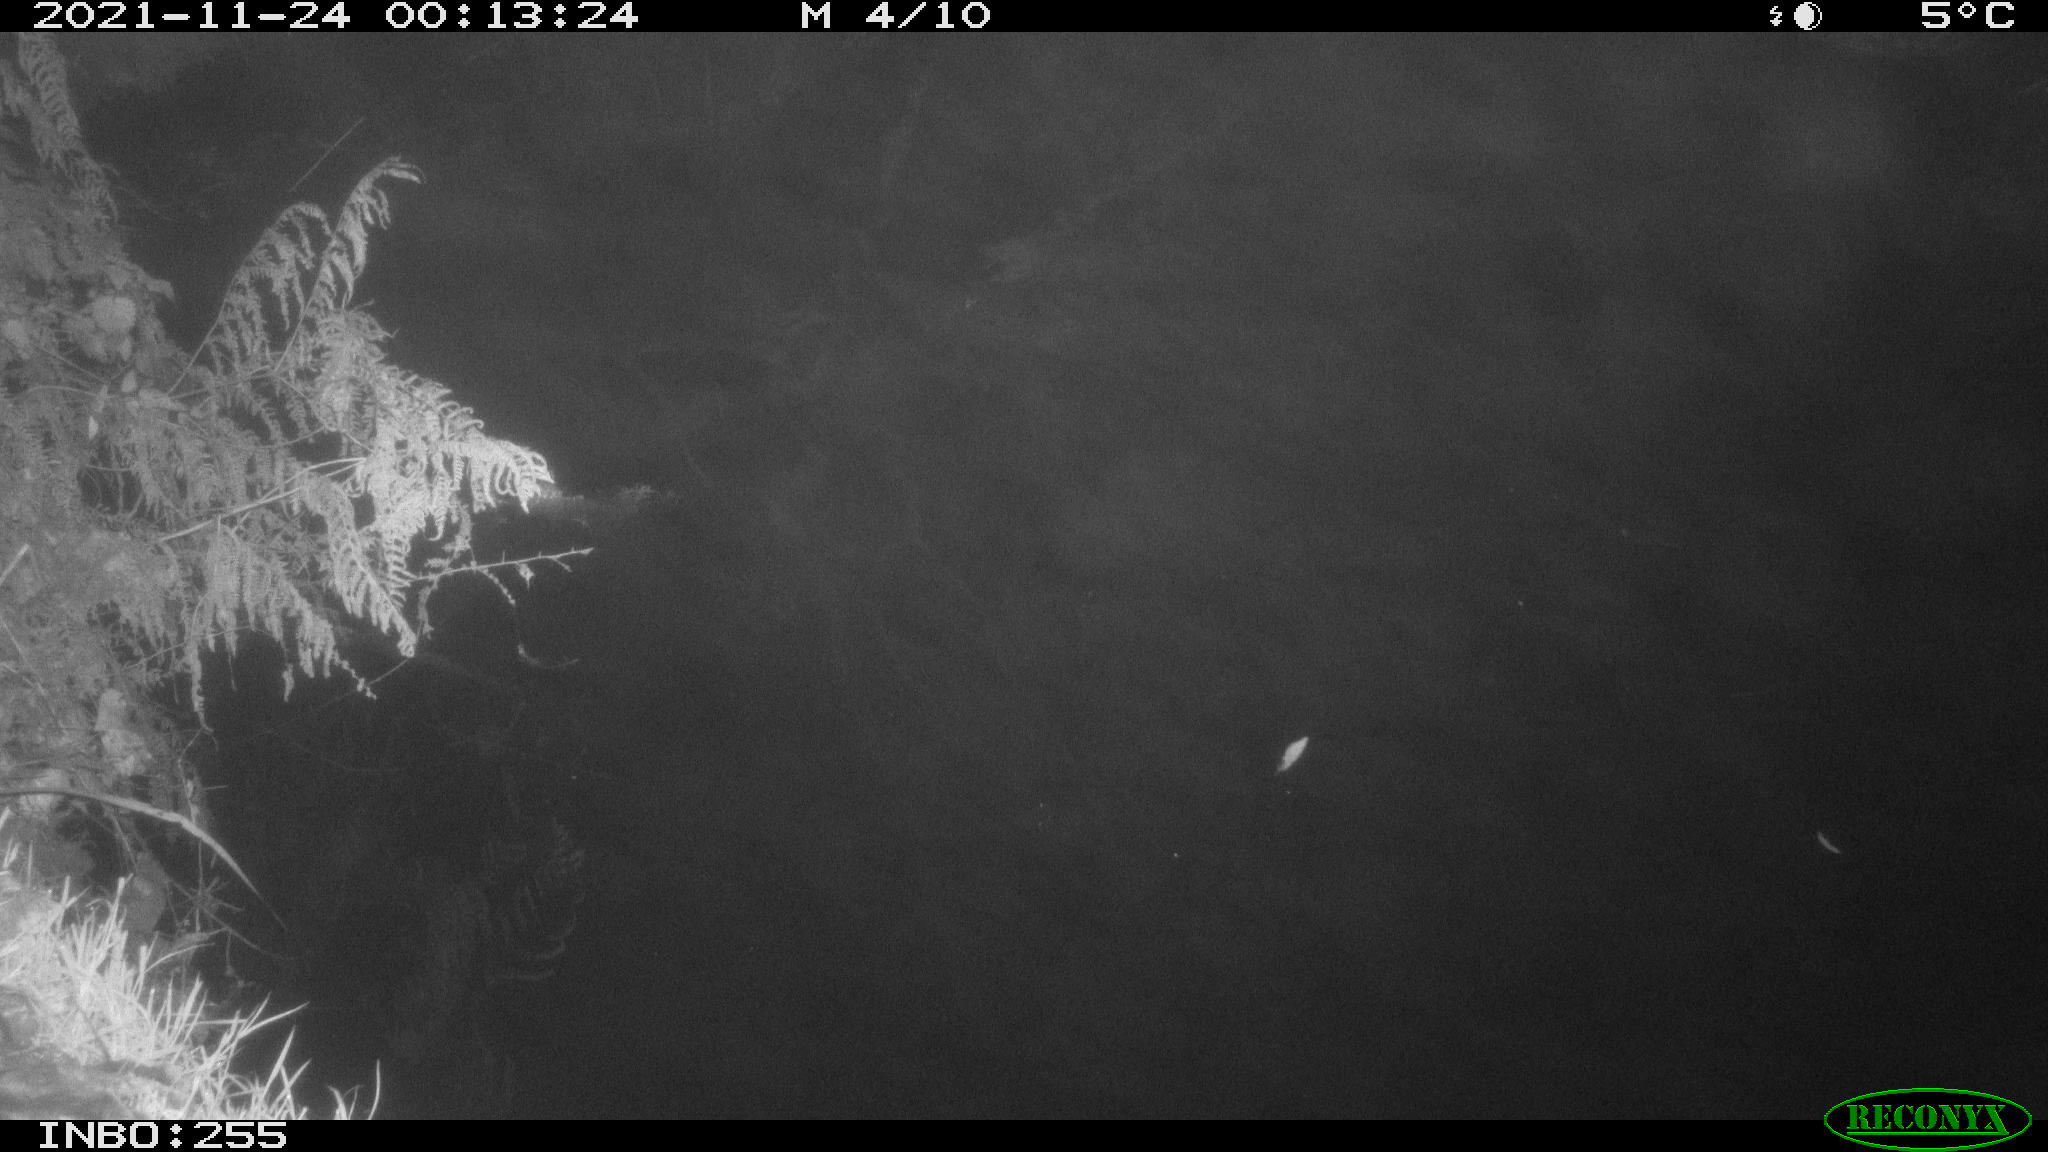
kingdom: Animalia
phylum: Chordata
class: Aves
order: Anseriformes
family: Anatidae
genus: Anas
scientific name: Anas platyrhynchos
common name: Mallard
